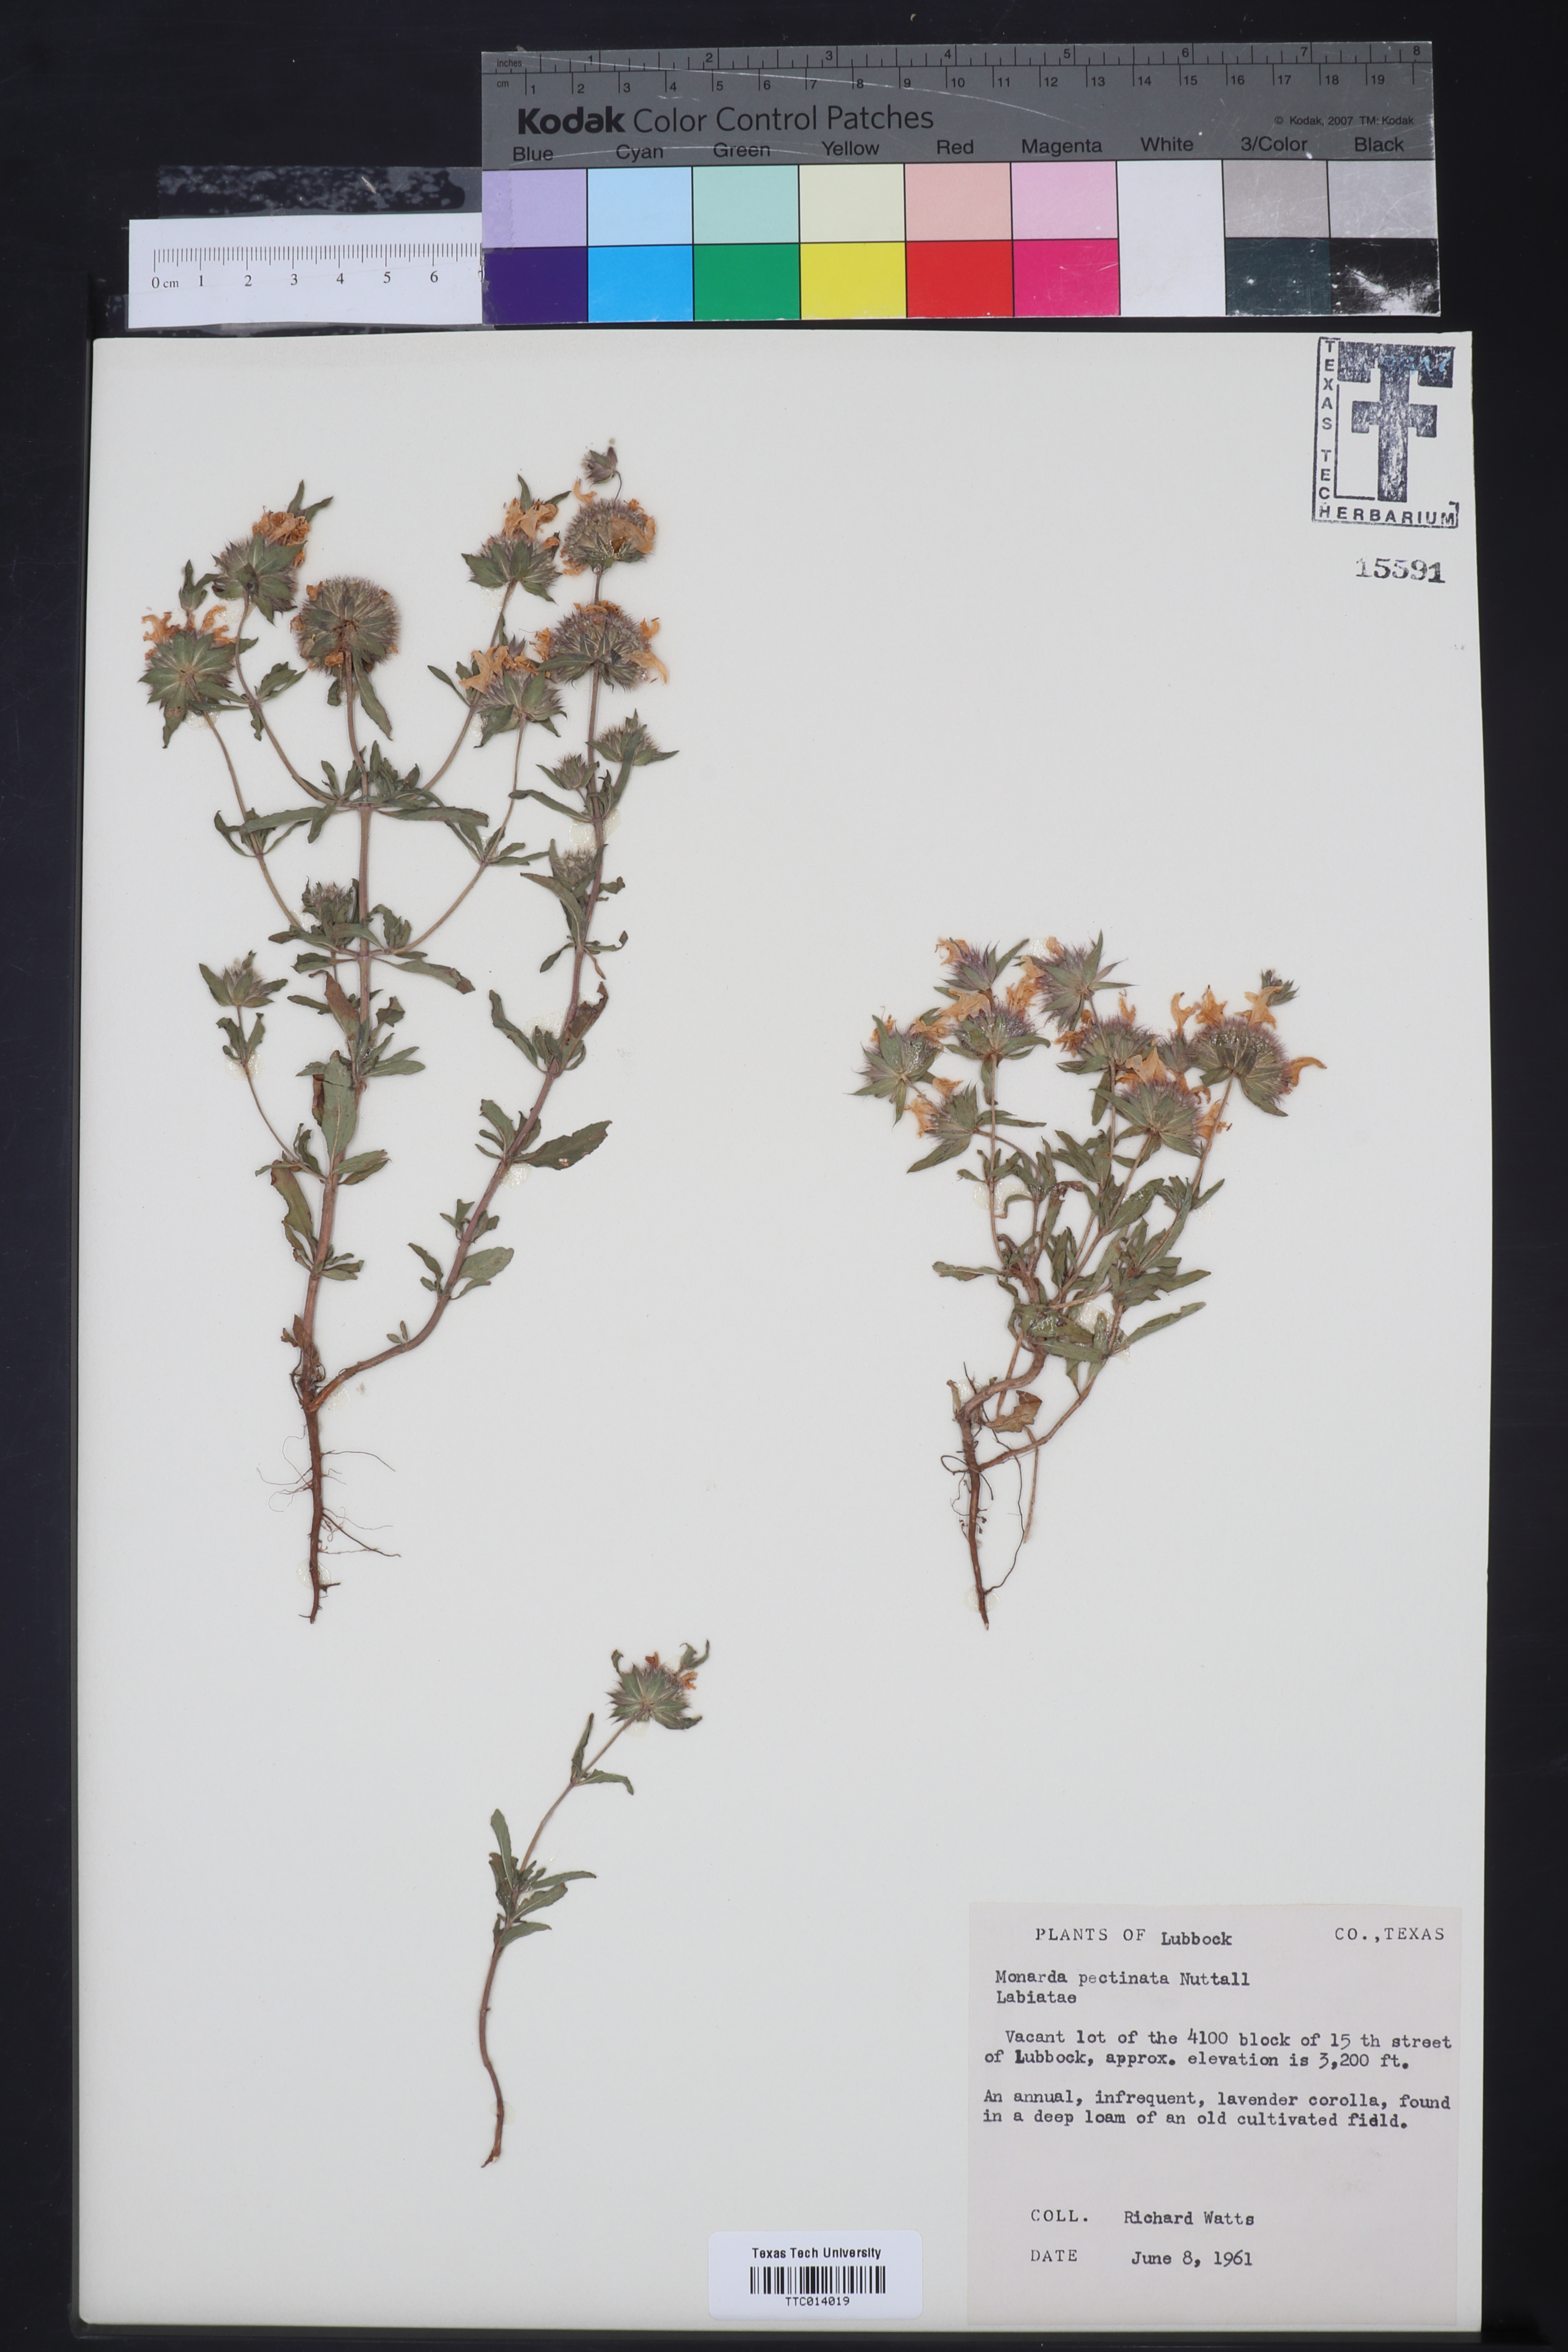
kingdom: Plantae
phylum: Tracheophyta
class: Magnoliopsida
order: Lamiales
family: Lamiaceae
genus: Monarda
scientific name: Monarda pectinata
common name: Plains beebalm
